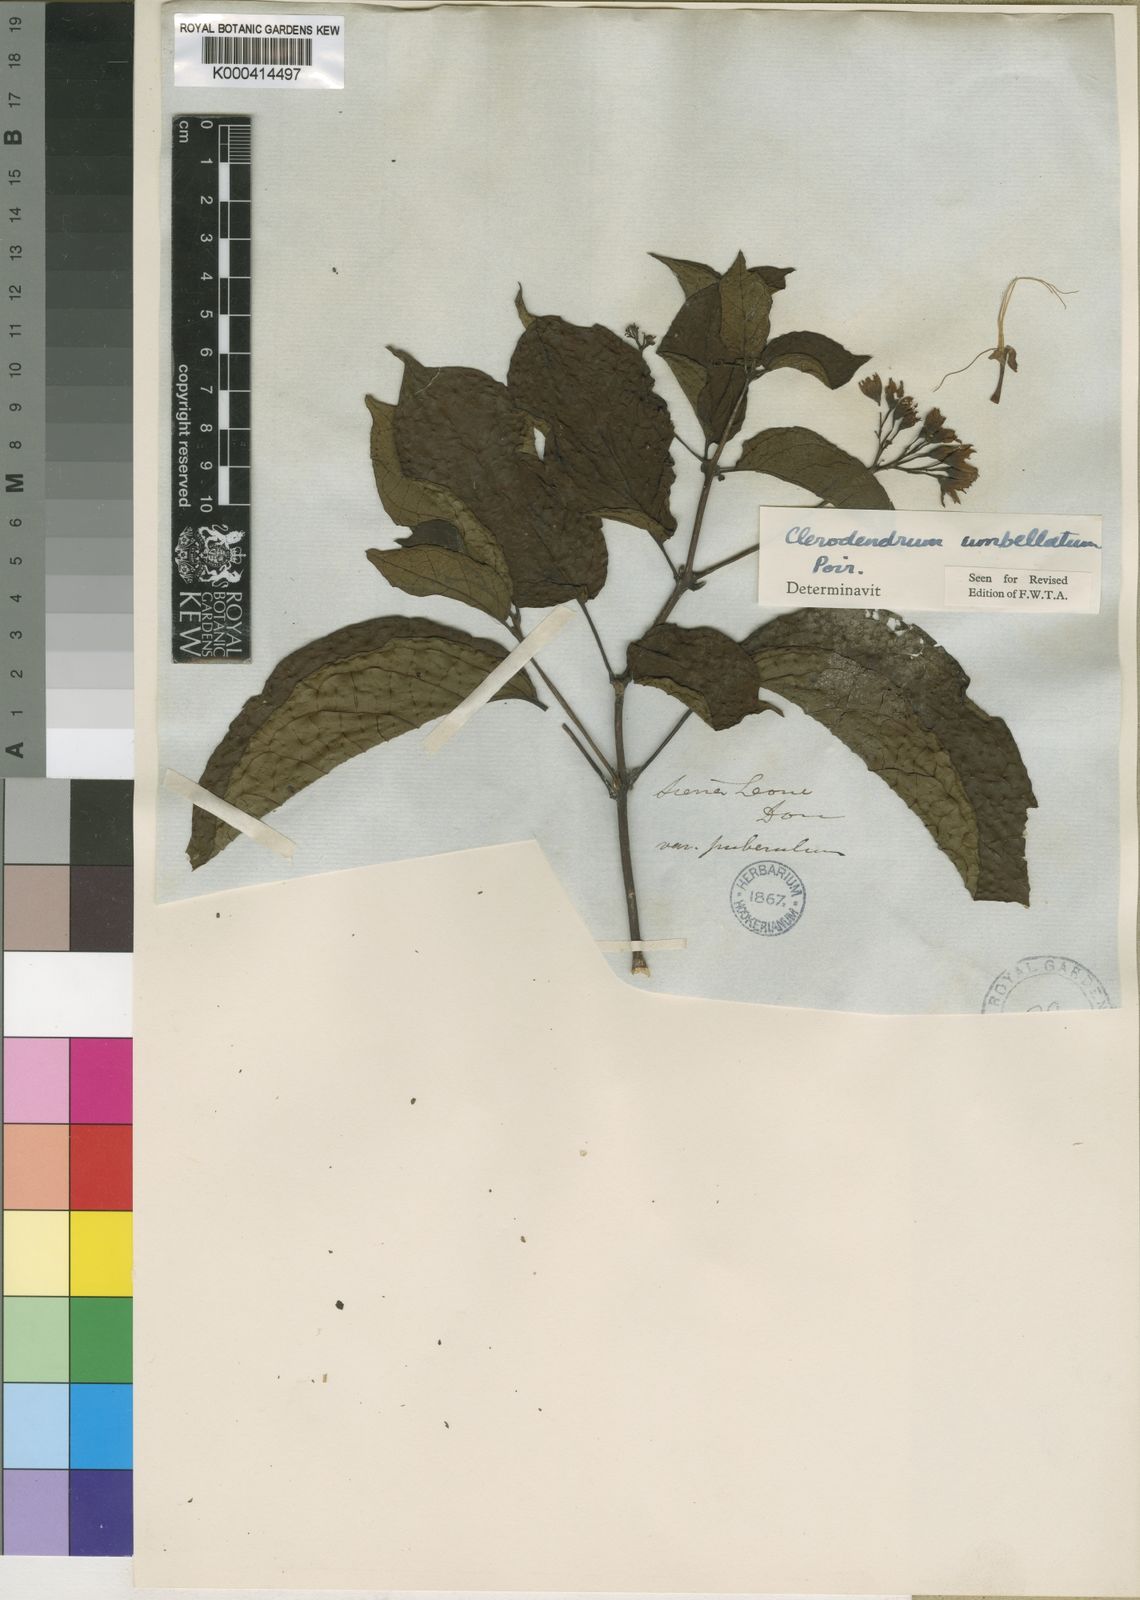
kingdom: Plantae
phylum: Tracheophyta
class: Magnoliopsida
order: Lamiales
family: Lamiaceae
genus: Clerodendrum
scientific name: Clerodendrum umbellatum
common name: Umbel clerodendrum
